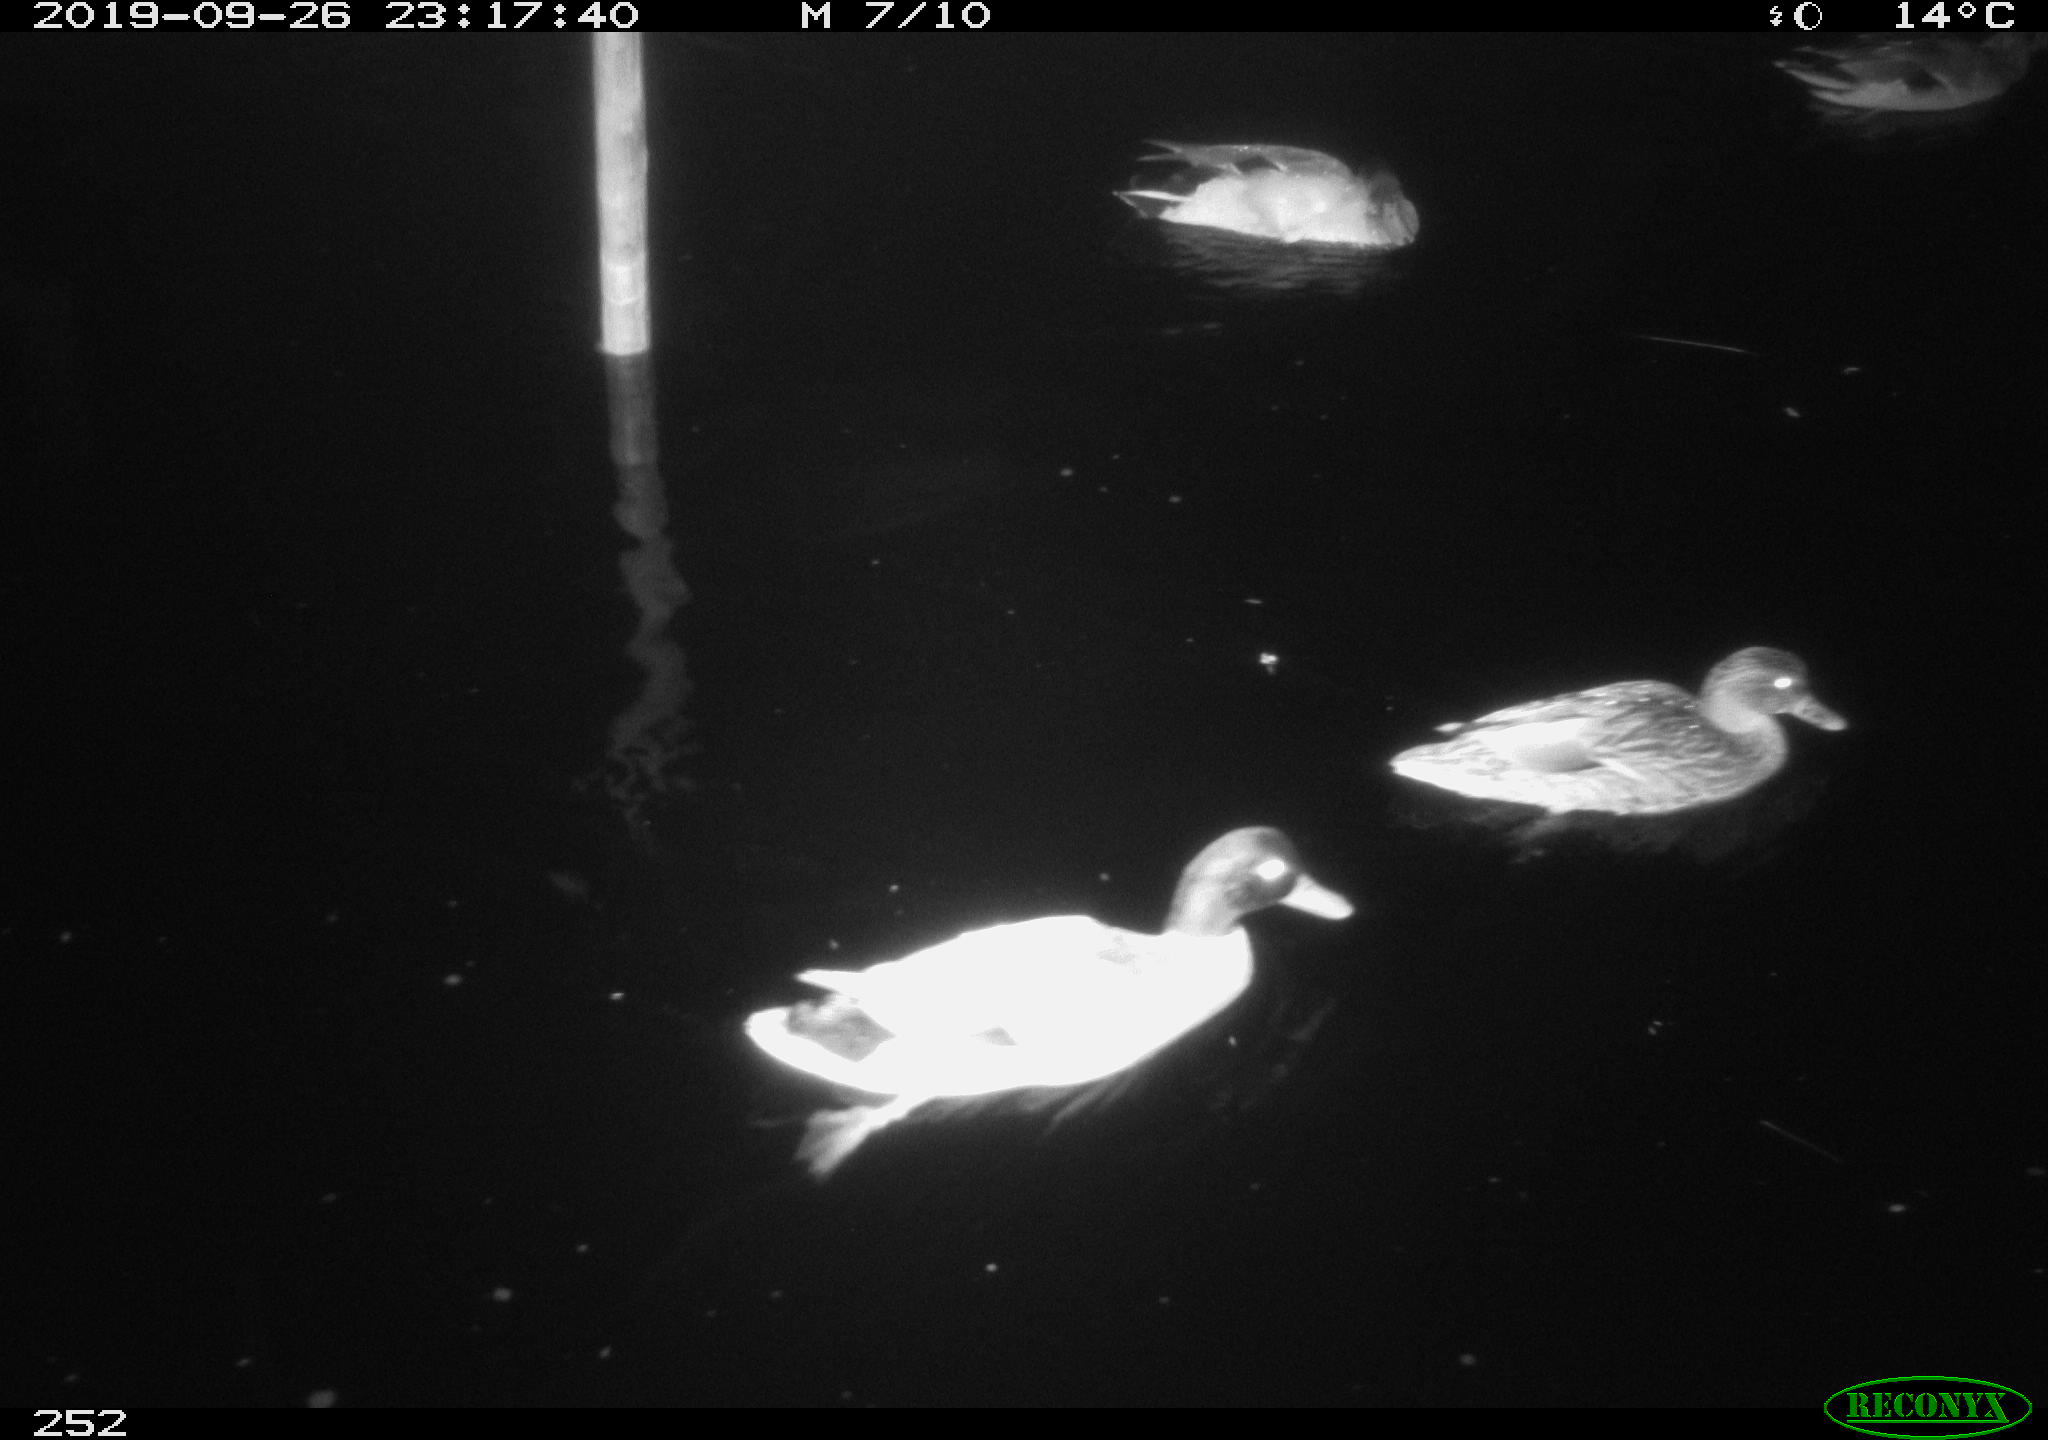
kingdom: Animalia
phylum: Chordata
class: Aves
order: Anseriformes
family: Anatidae
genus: Anas
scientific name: Anas platyrhynchos
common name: Mallard
